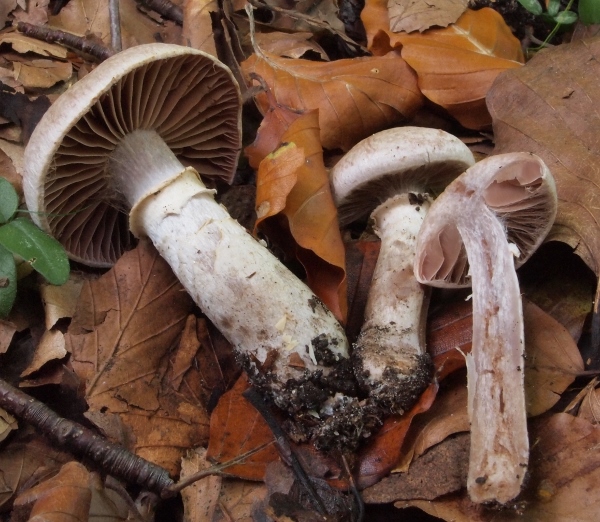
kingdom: Fungi
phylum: Basidiomycota
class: Agaricomycetes
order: Agaricales
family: Cortinariaceae
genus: Cortinarius
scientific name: Cortinarius torvus
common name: champignonagtig slørhat
